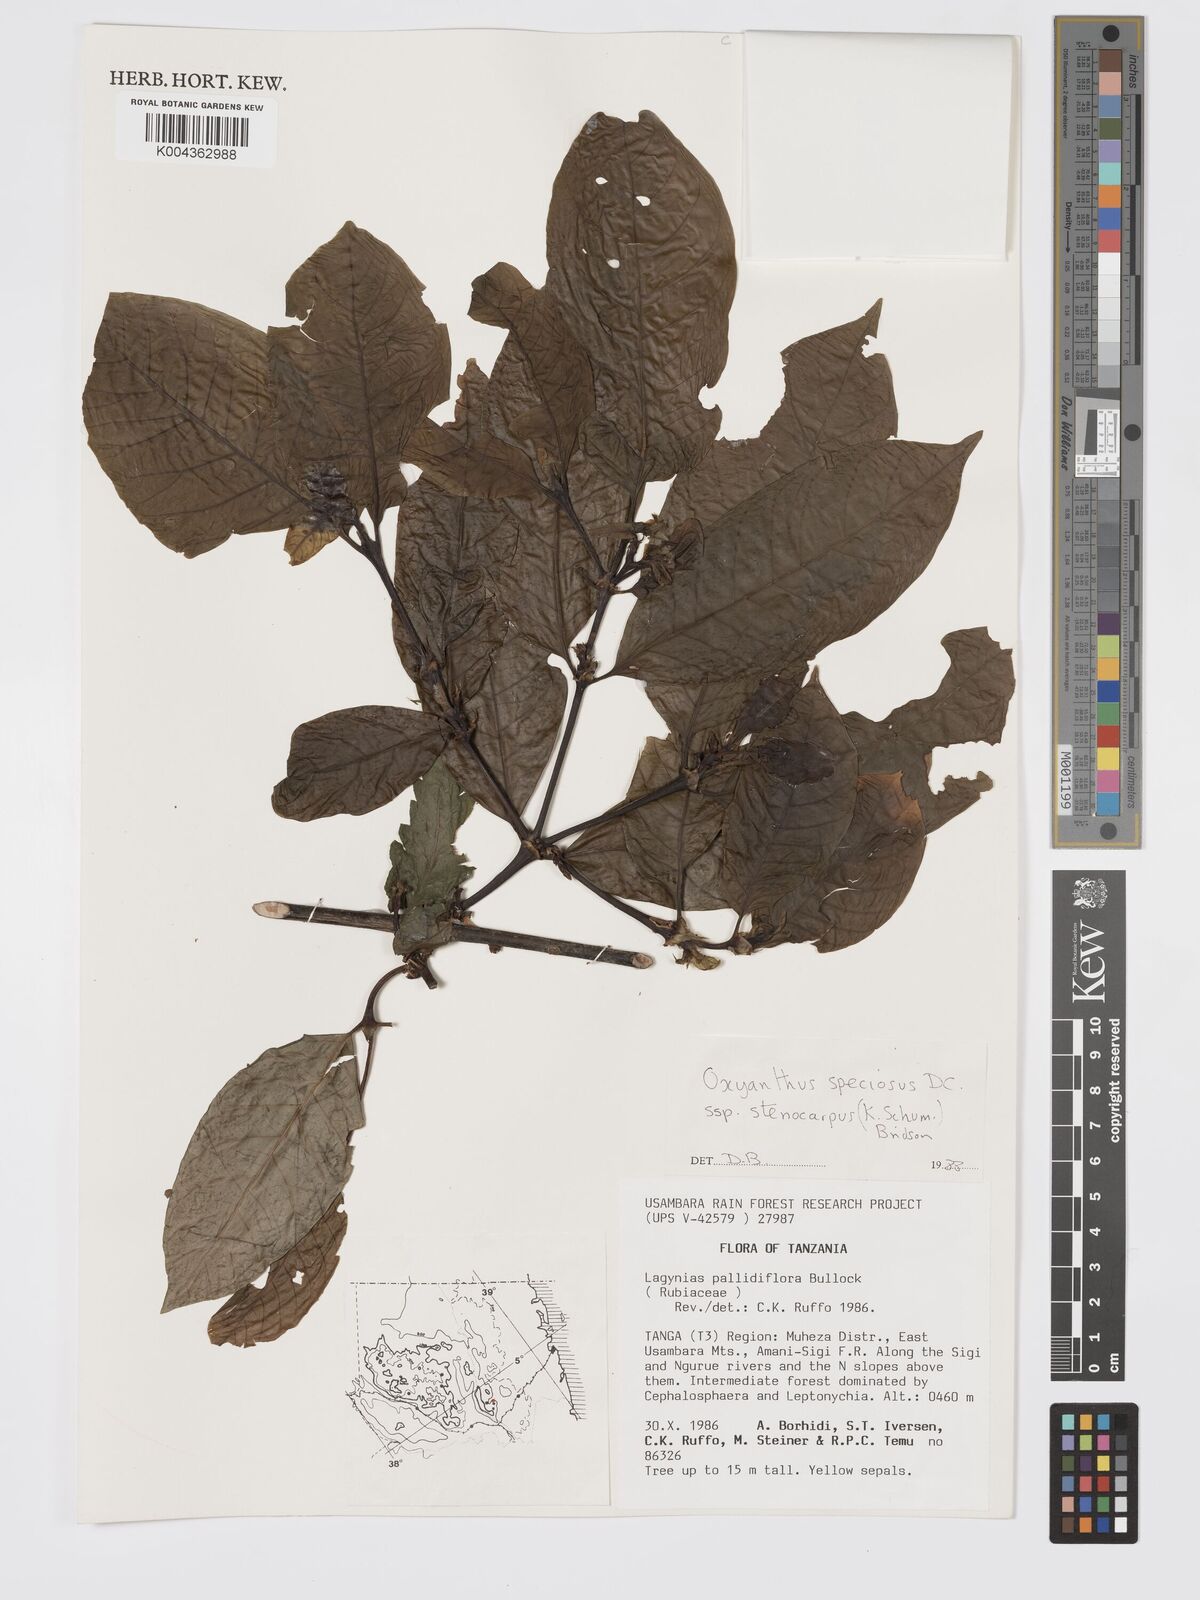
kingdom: Plantae
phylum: Tracheophyta
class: Magnoliopsida
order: Gentianales
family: Rubiaceae
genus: Oxyanthus
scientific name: Oxyanthus speciosus
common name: Whipstick loquat
